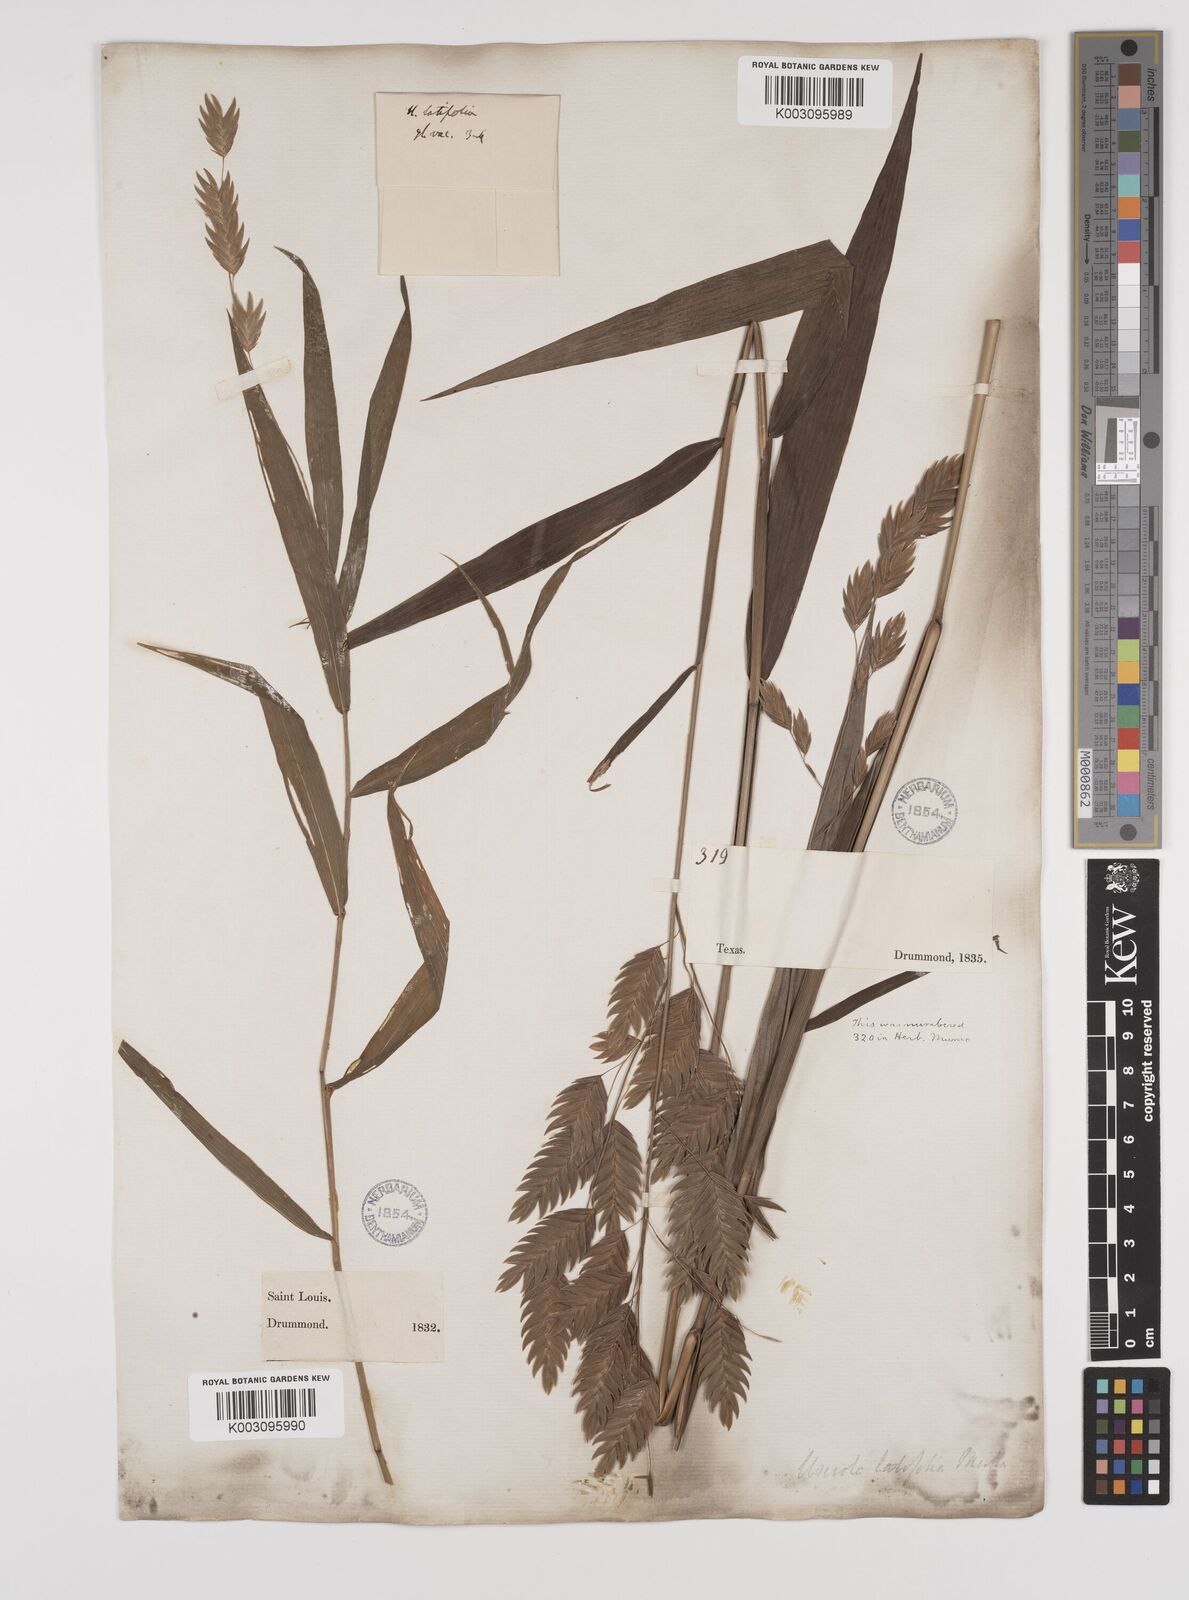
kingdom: Plantae
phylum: Tracheophyta
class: Liliopsida
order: Poales
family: Poaceae
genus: Chasmanthium
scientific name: Chasmanthium latifolium
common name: Broad-leaved chasmanthium
